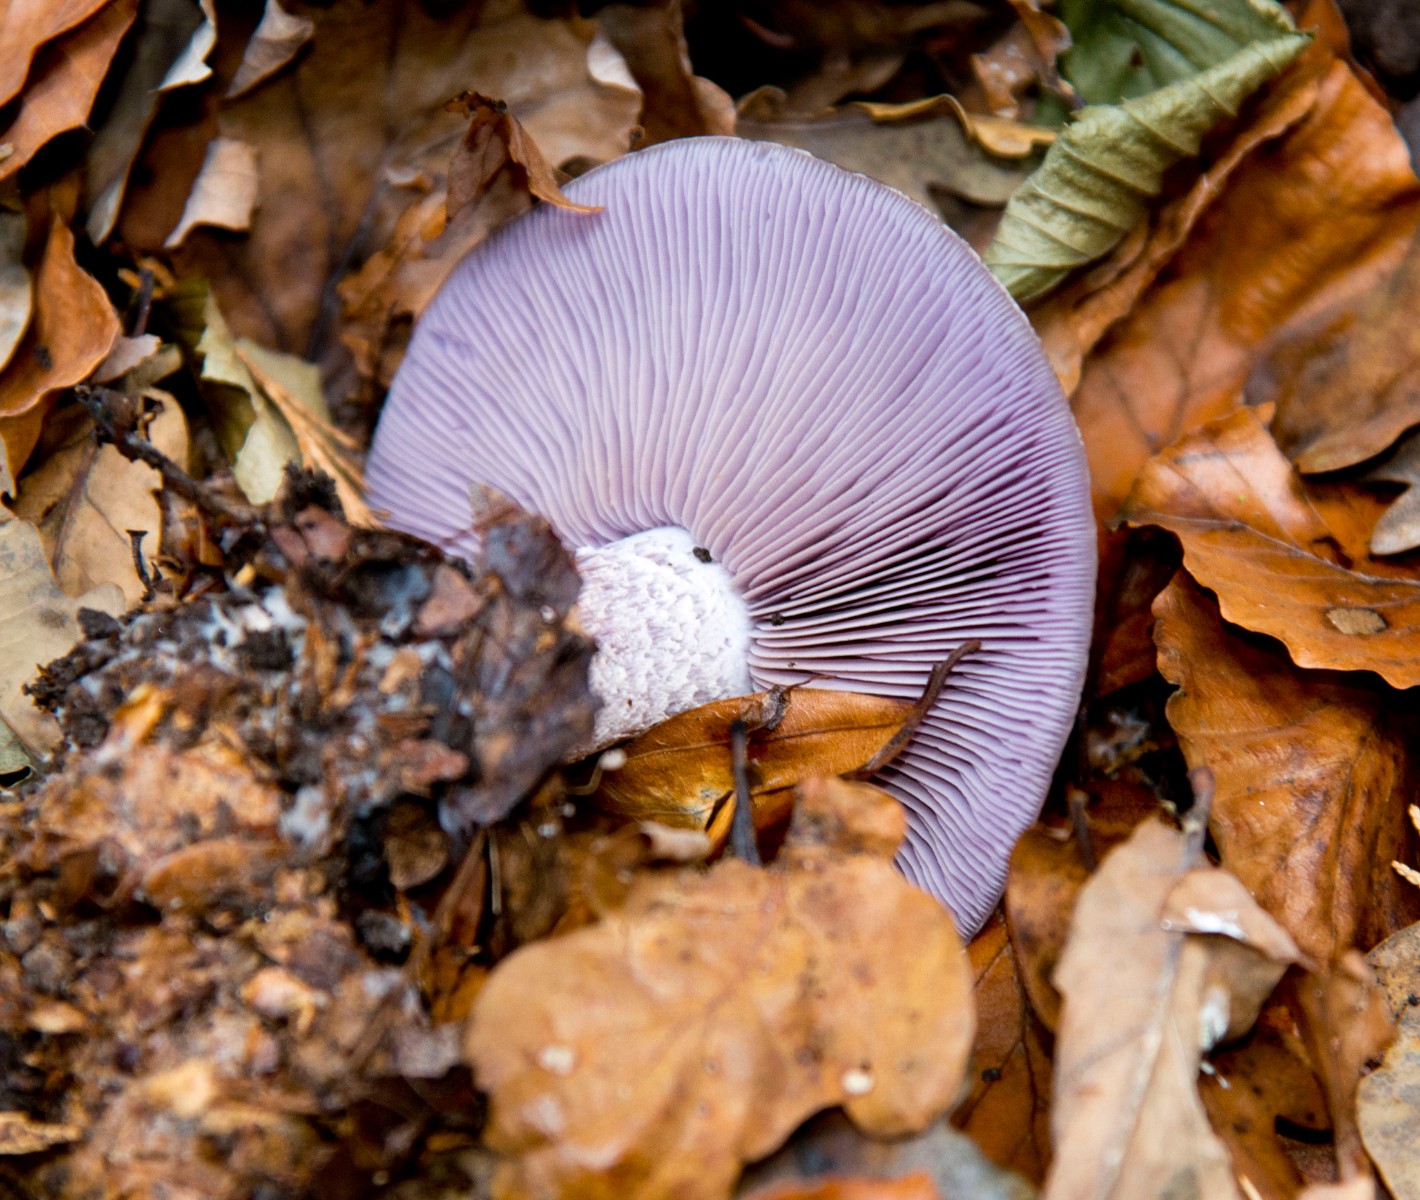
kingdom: Fungi
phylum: Basidiomycota
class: Agaricomycetes
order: Agaricales
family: Tricholomataceae
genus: Lepista
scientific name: Lepista nuda
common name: violet hekseringshat
